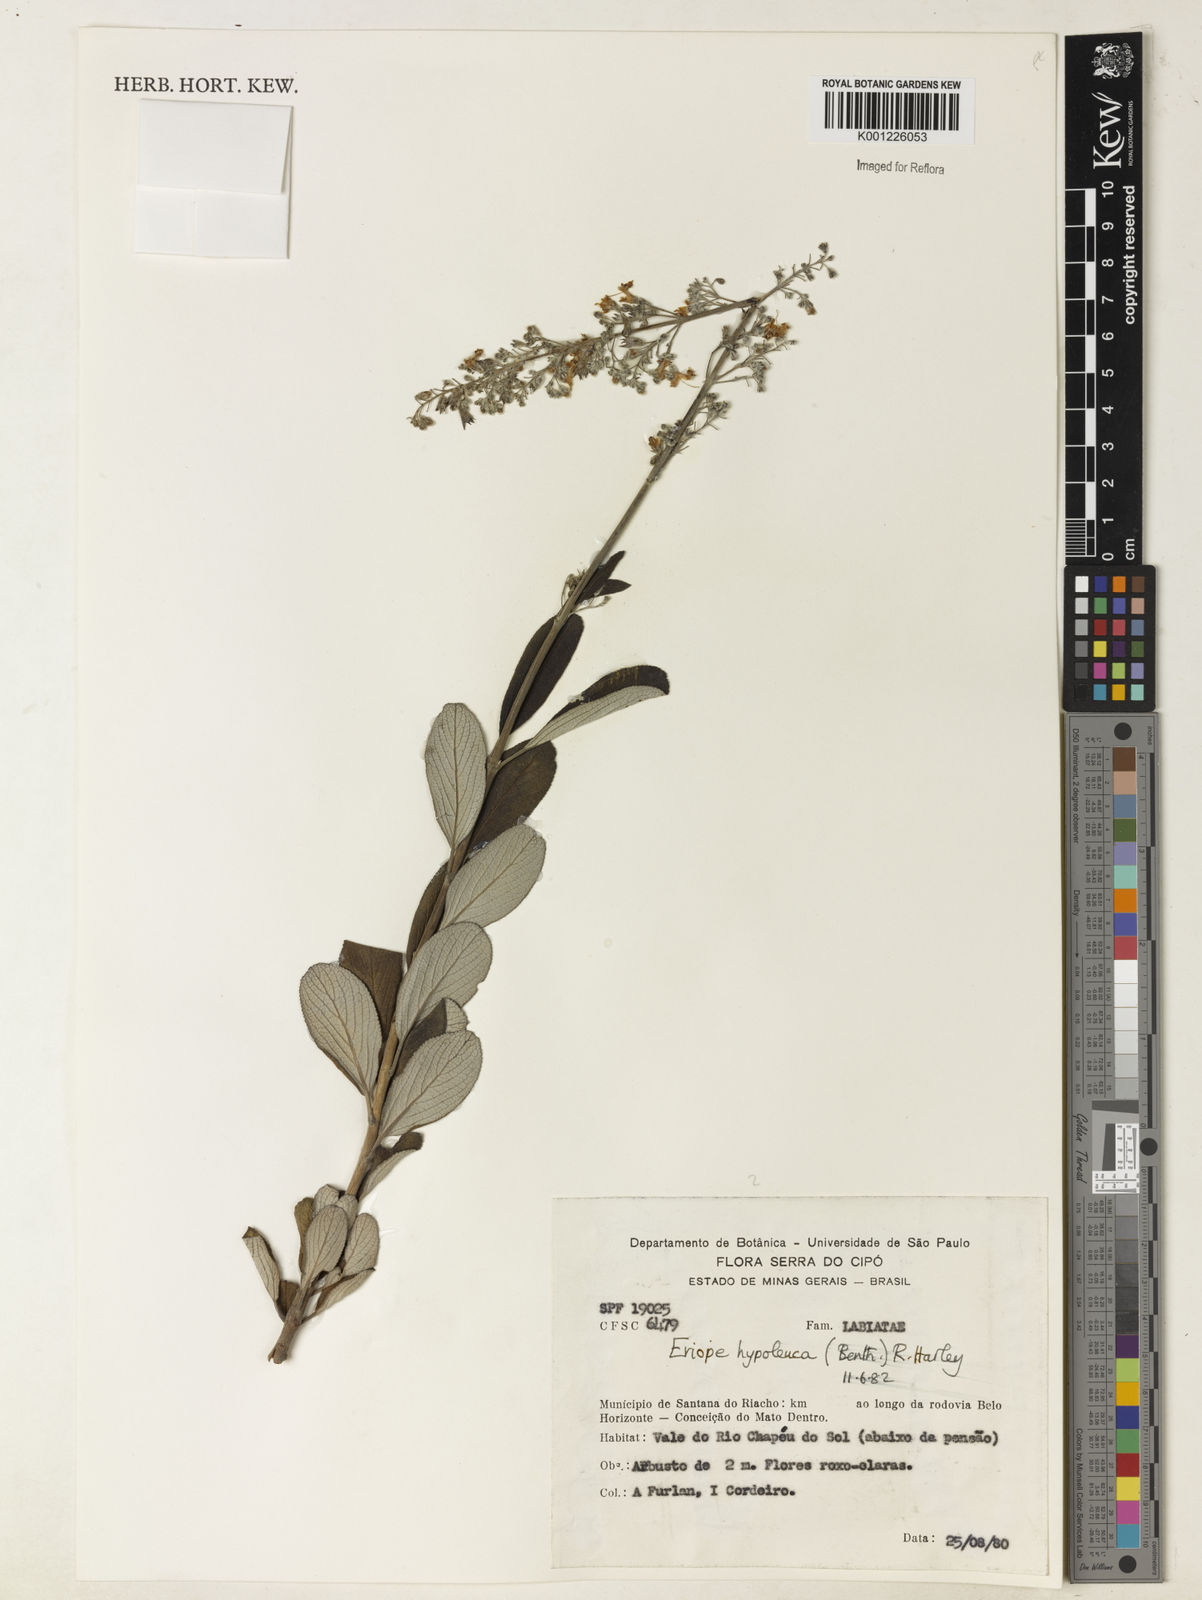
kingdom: Plantae
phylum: Tracheophyta
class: Magnoliopsida
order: Lamiales
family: Lamiaceae
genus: Eriope
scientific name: Eriope hypoleuca
